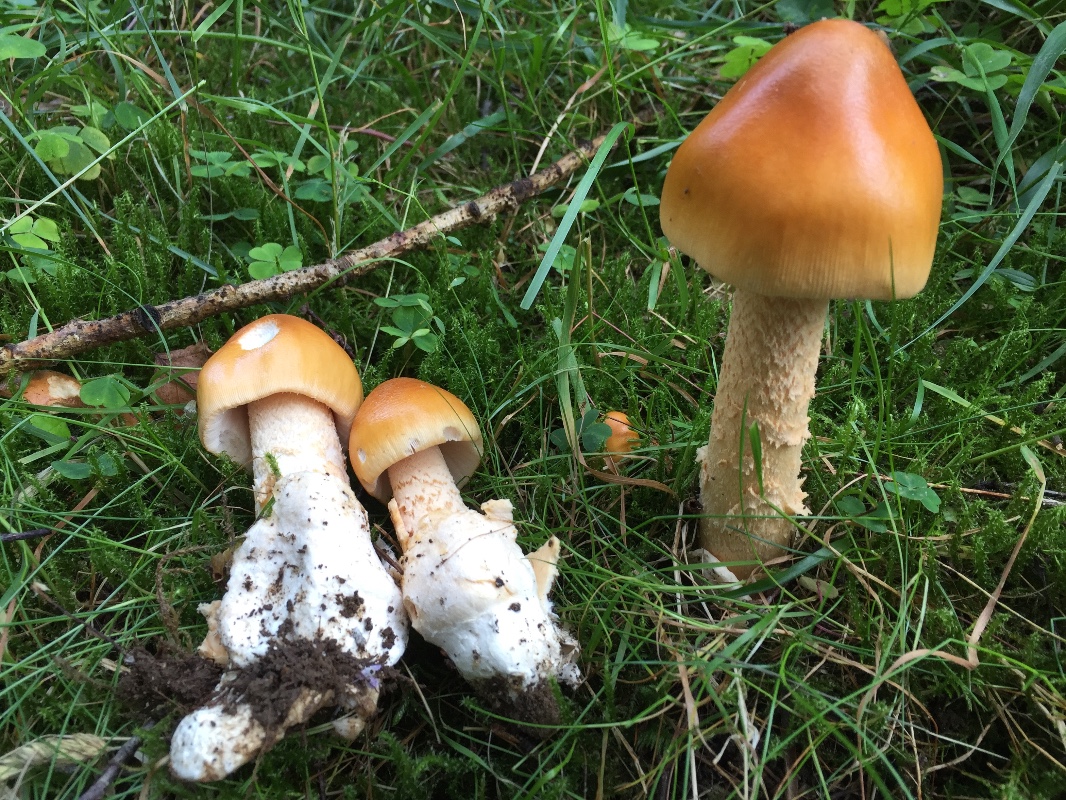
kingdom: Fungi
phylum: Basidiomycota
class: Agaricomycetes
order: Agaricales
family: Amanitaceae
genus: Amanita
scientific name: Amanita crocea
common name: gylden kam-fluesvamp
